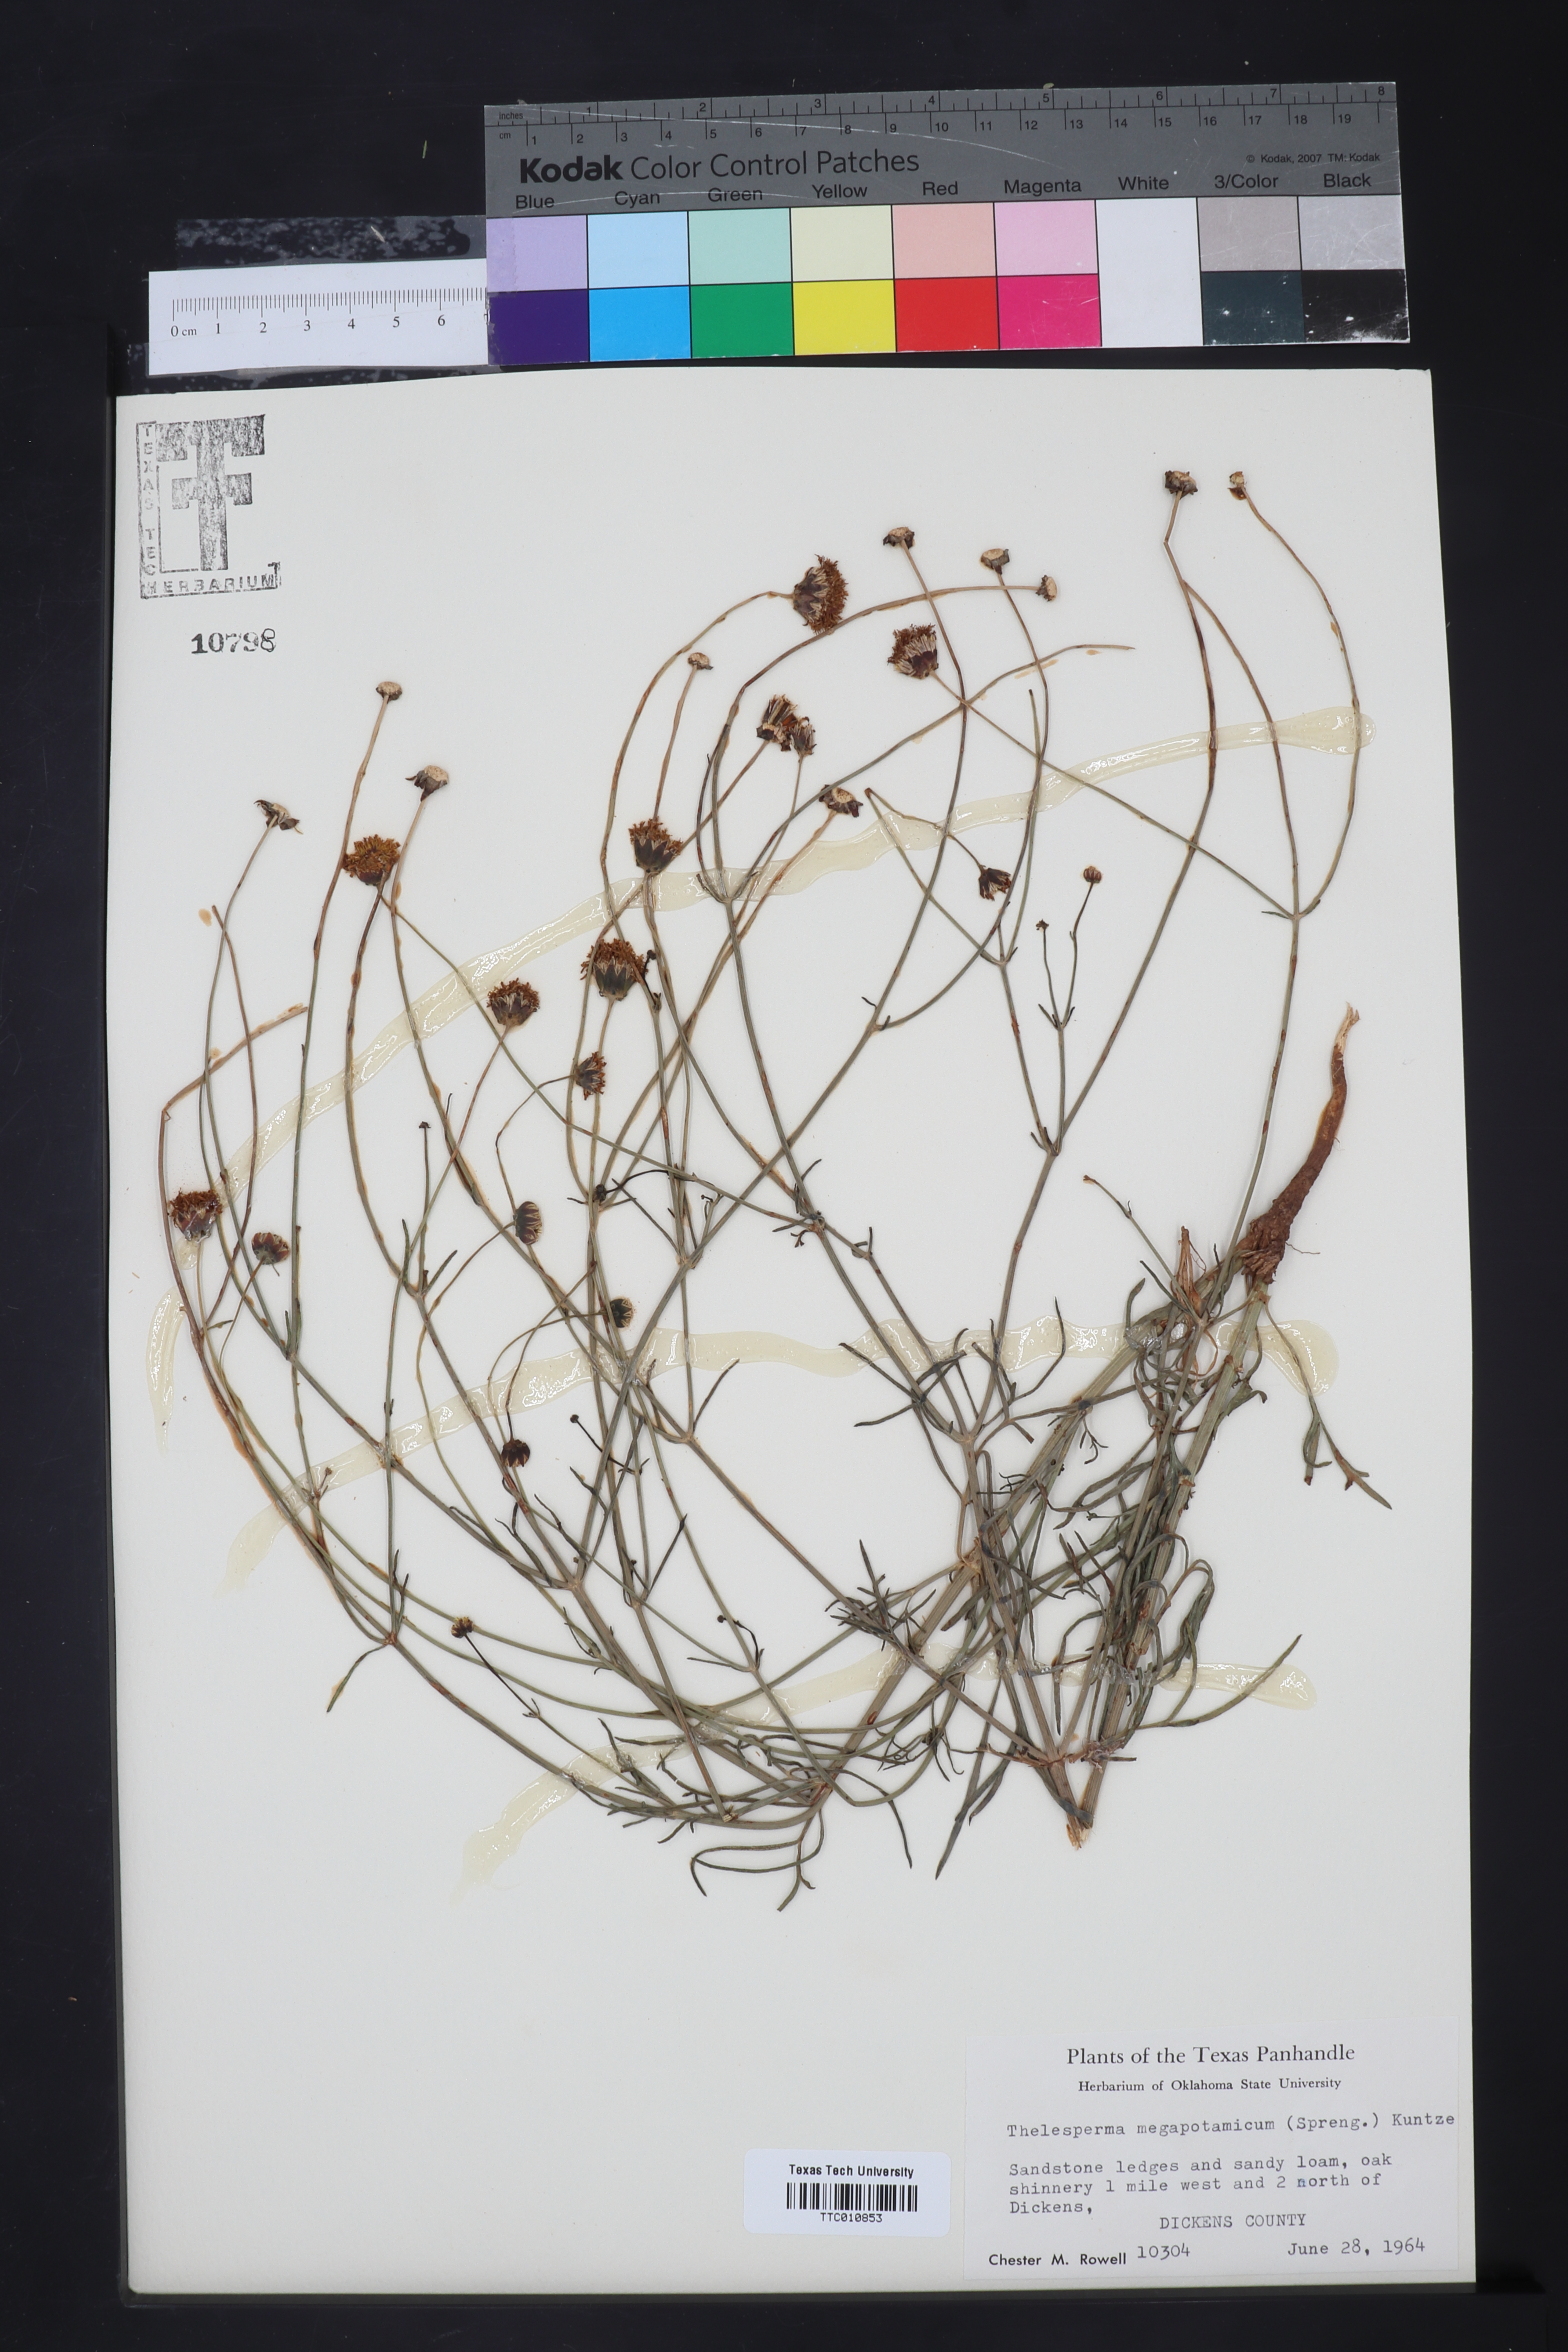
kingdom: Plantae
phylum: Tracheophyta
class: Magnoliopsida
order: Asterales
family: Asteraceae
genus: Thelesperma
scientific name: Thelesperma megapotamicum
